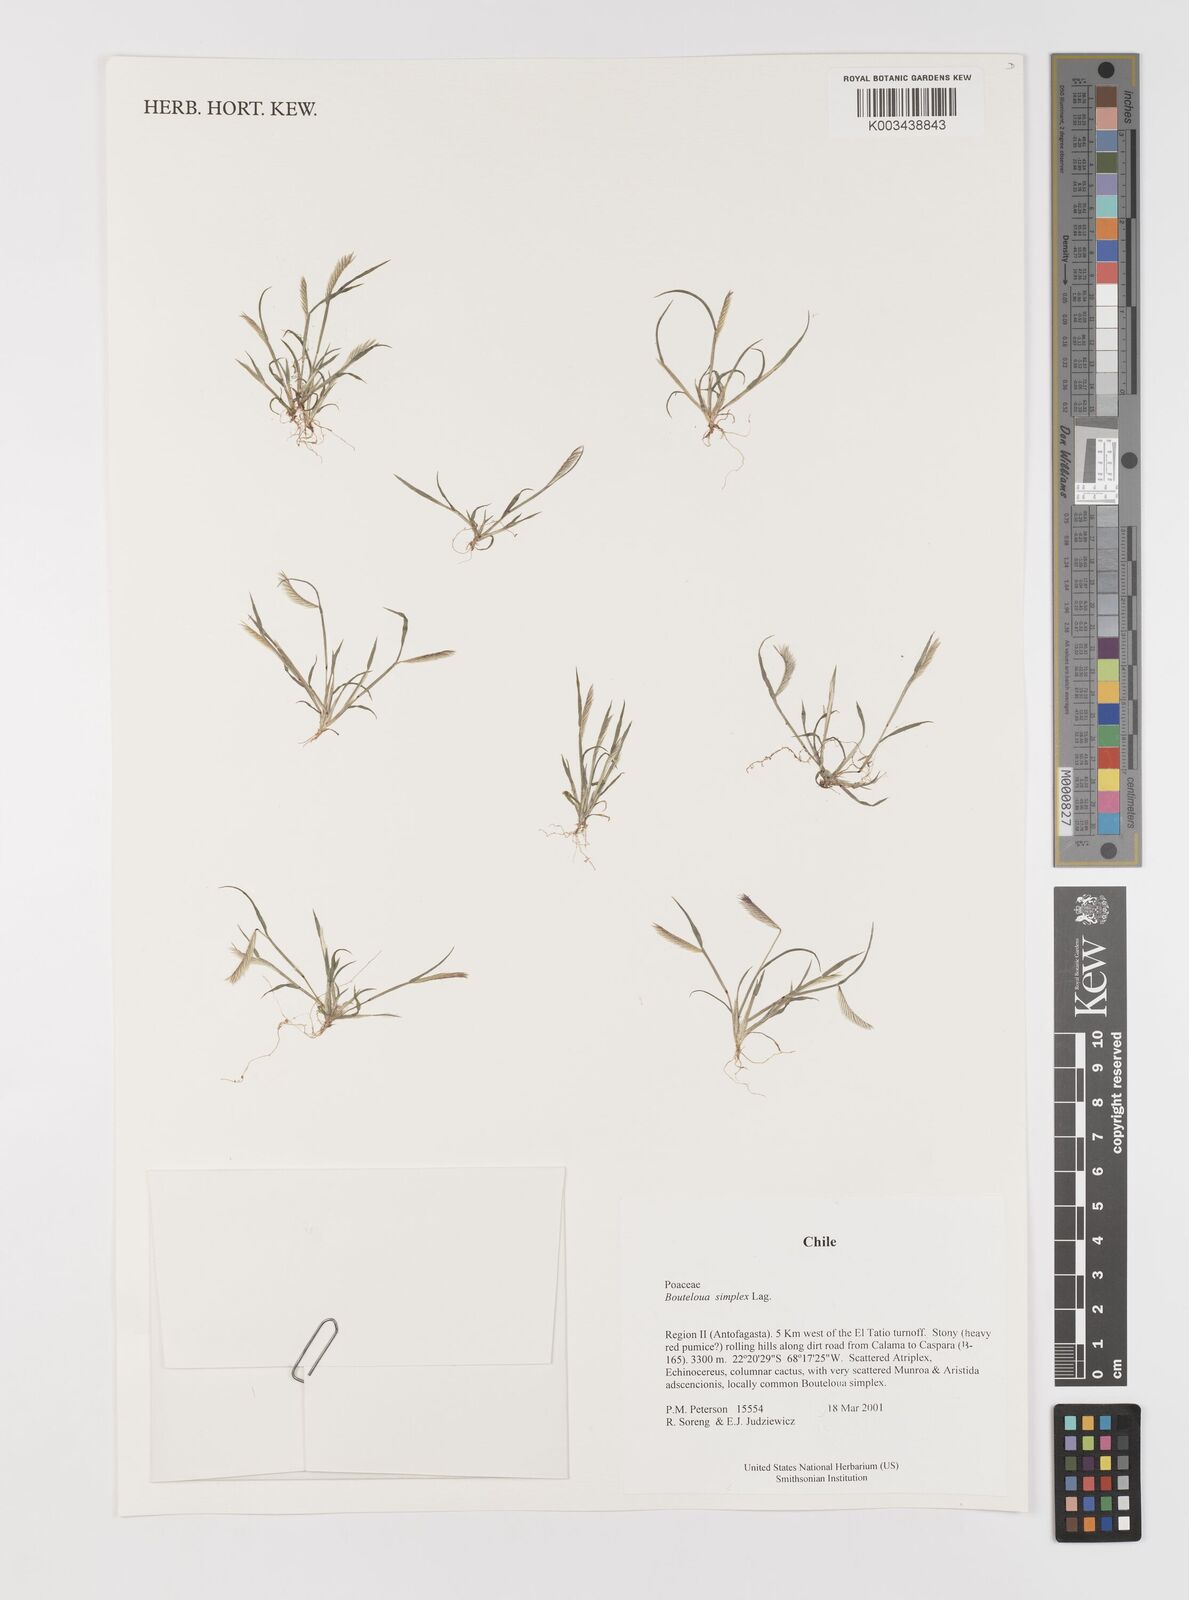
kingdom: Plantae
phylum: Tracheophyta
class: Liliopsida
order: Poales
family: Poaceae
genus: Bouteloua
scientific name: Bouteloua simplex
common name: Mat grama
